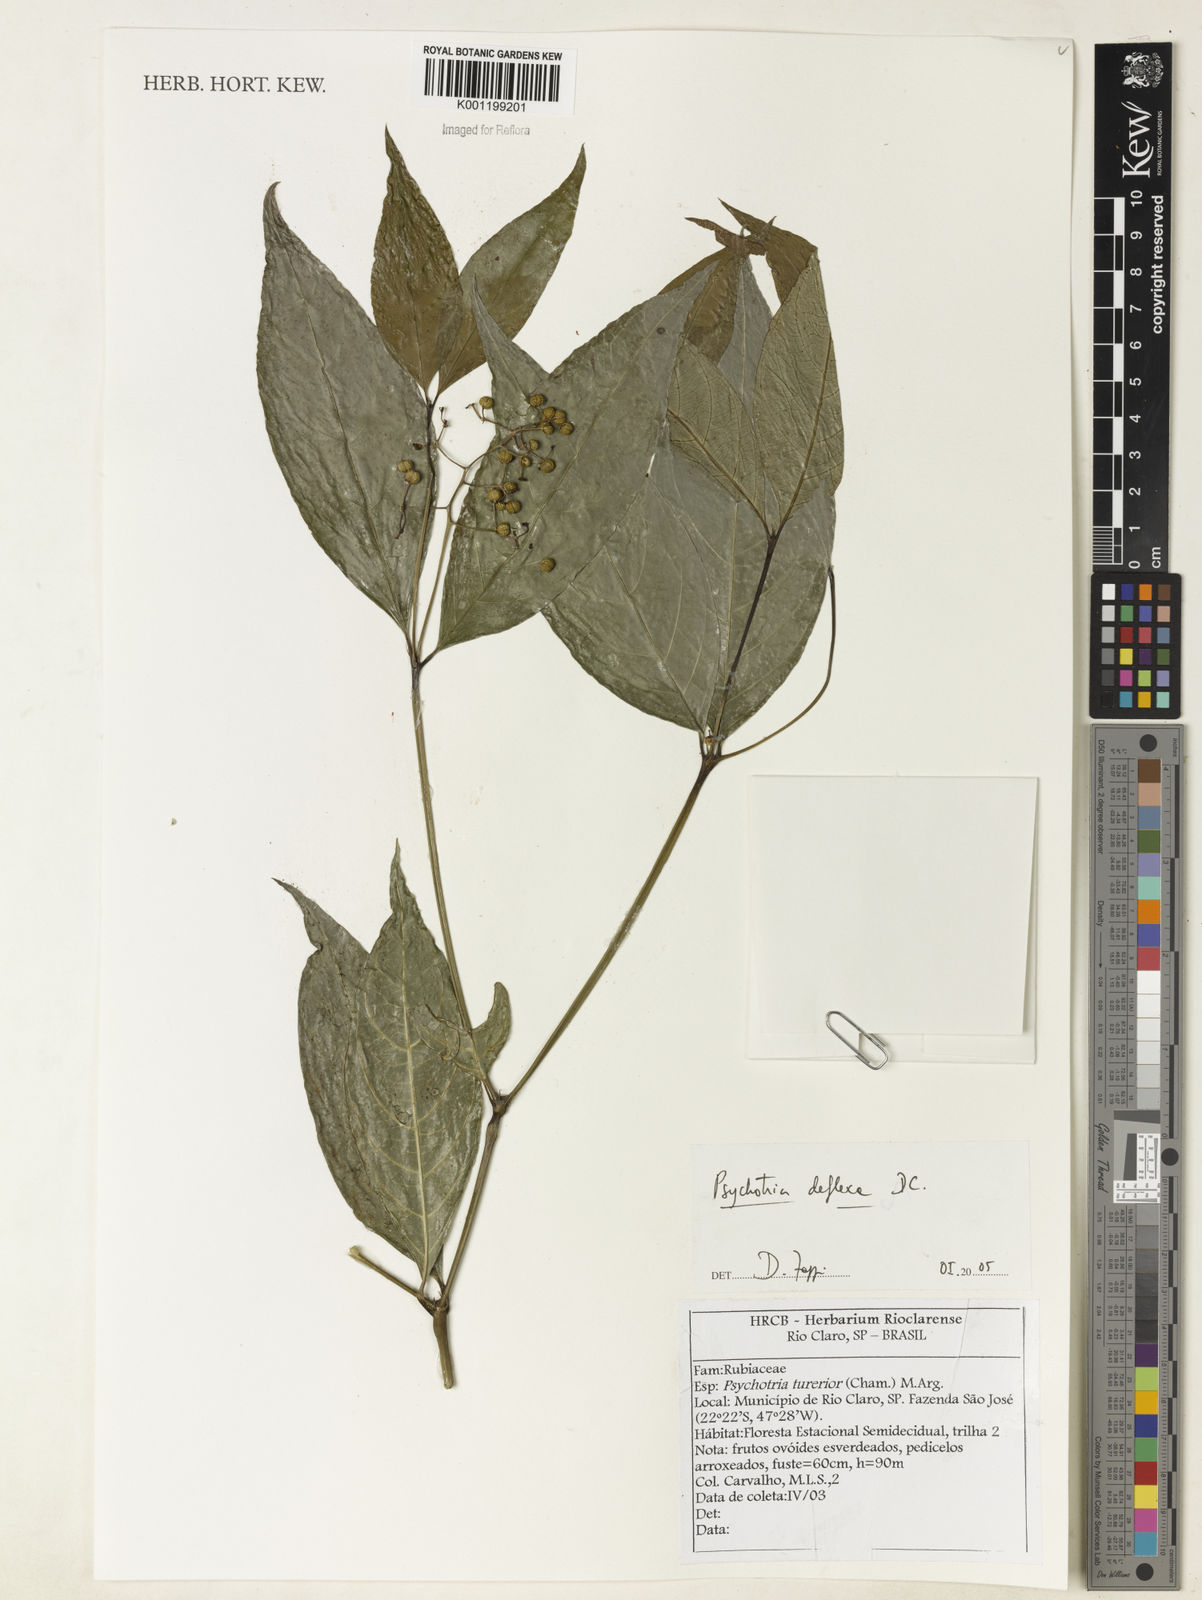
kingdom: Plantae
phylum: Tracheophyta
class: Magnoliopsida
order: Gentianales
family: Rubiaceae
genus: Palicourea
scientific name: Palicourea deflexa
